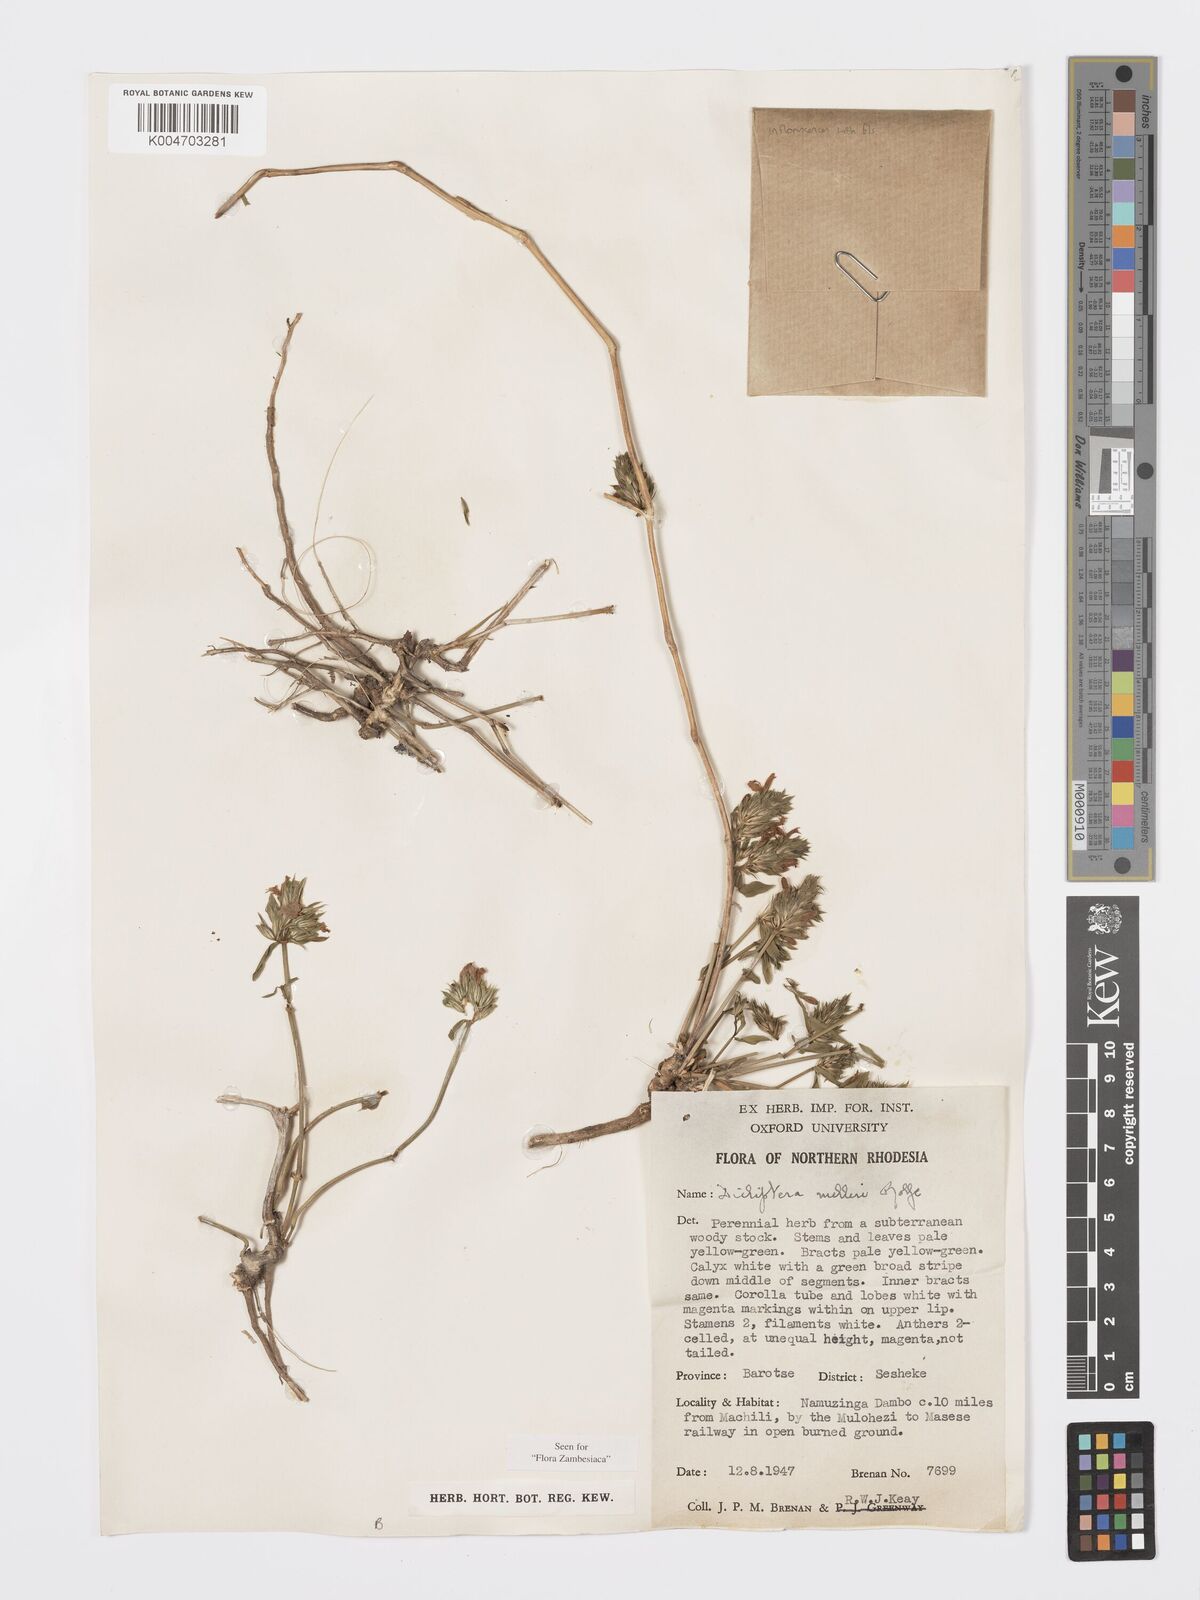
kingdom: Plantae
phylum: Tracheophyta
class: Magnoliopsida
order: Lamiales
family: Acanthaceae
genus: Dicliptera
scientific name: Dicliptera melleri
